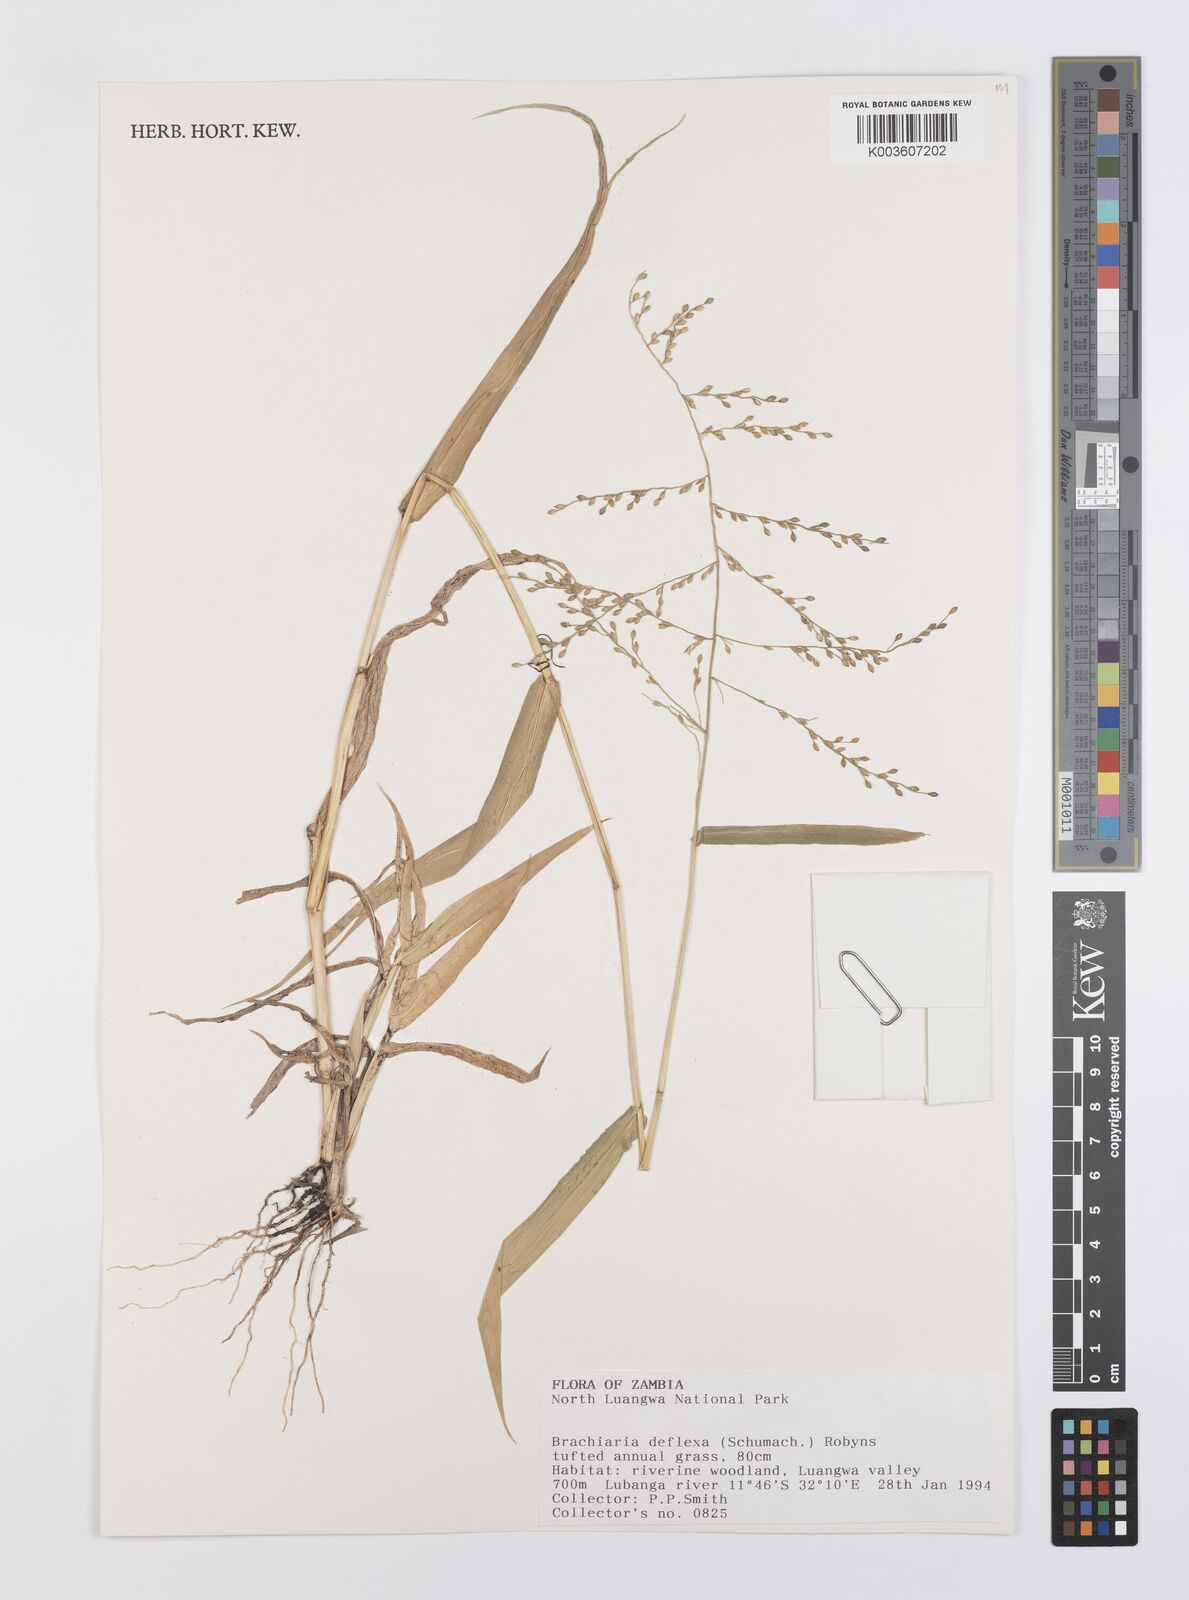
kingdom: Plantae
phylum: Tracheophyta
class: Liliopsida
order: Poales
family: Poaceae
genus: Urochloa
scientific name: Urochloa deflexa
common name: Guinea millet
